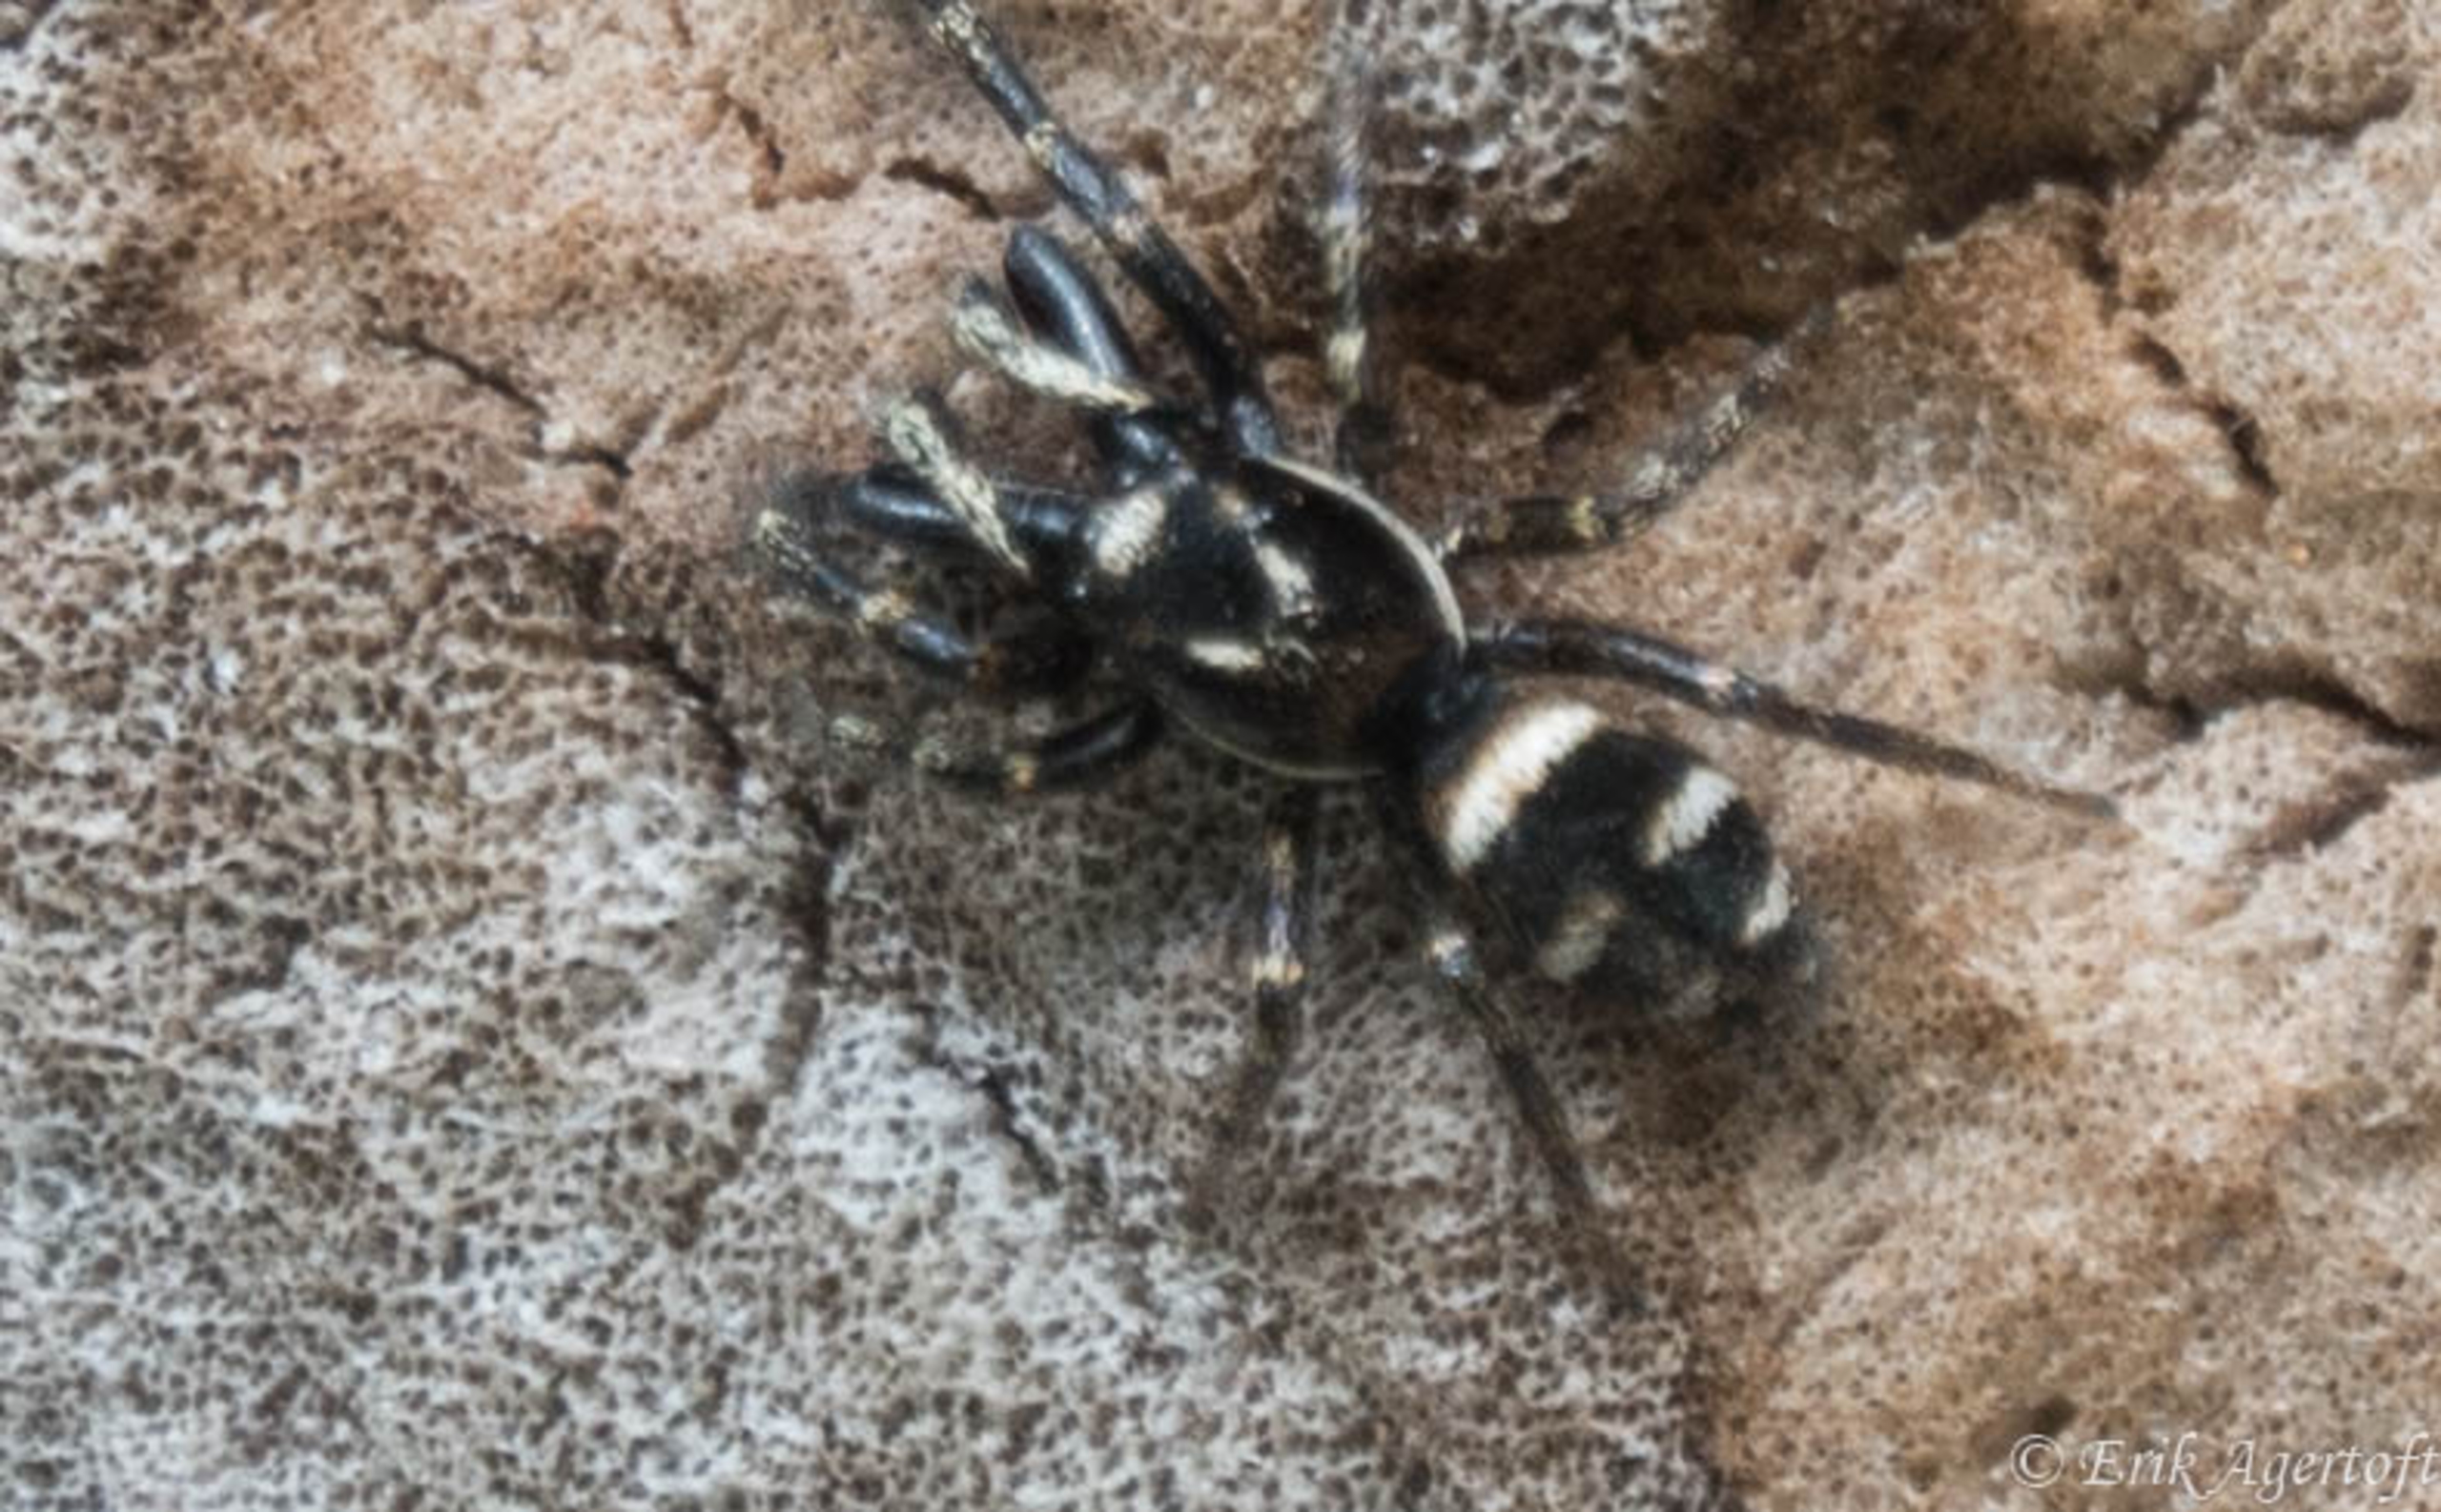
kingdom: Animalia
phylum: Arthropoda
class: Arachnida
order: Araneae
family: Salticidae
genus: Salticus
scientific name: Salticus scenicus
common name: Almindelig zebraedderkop
